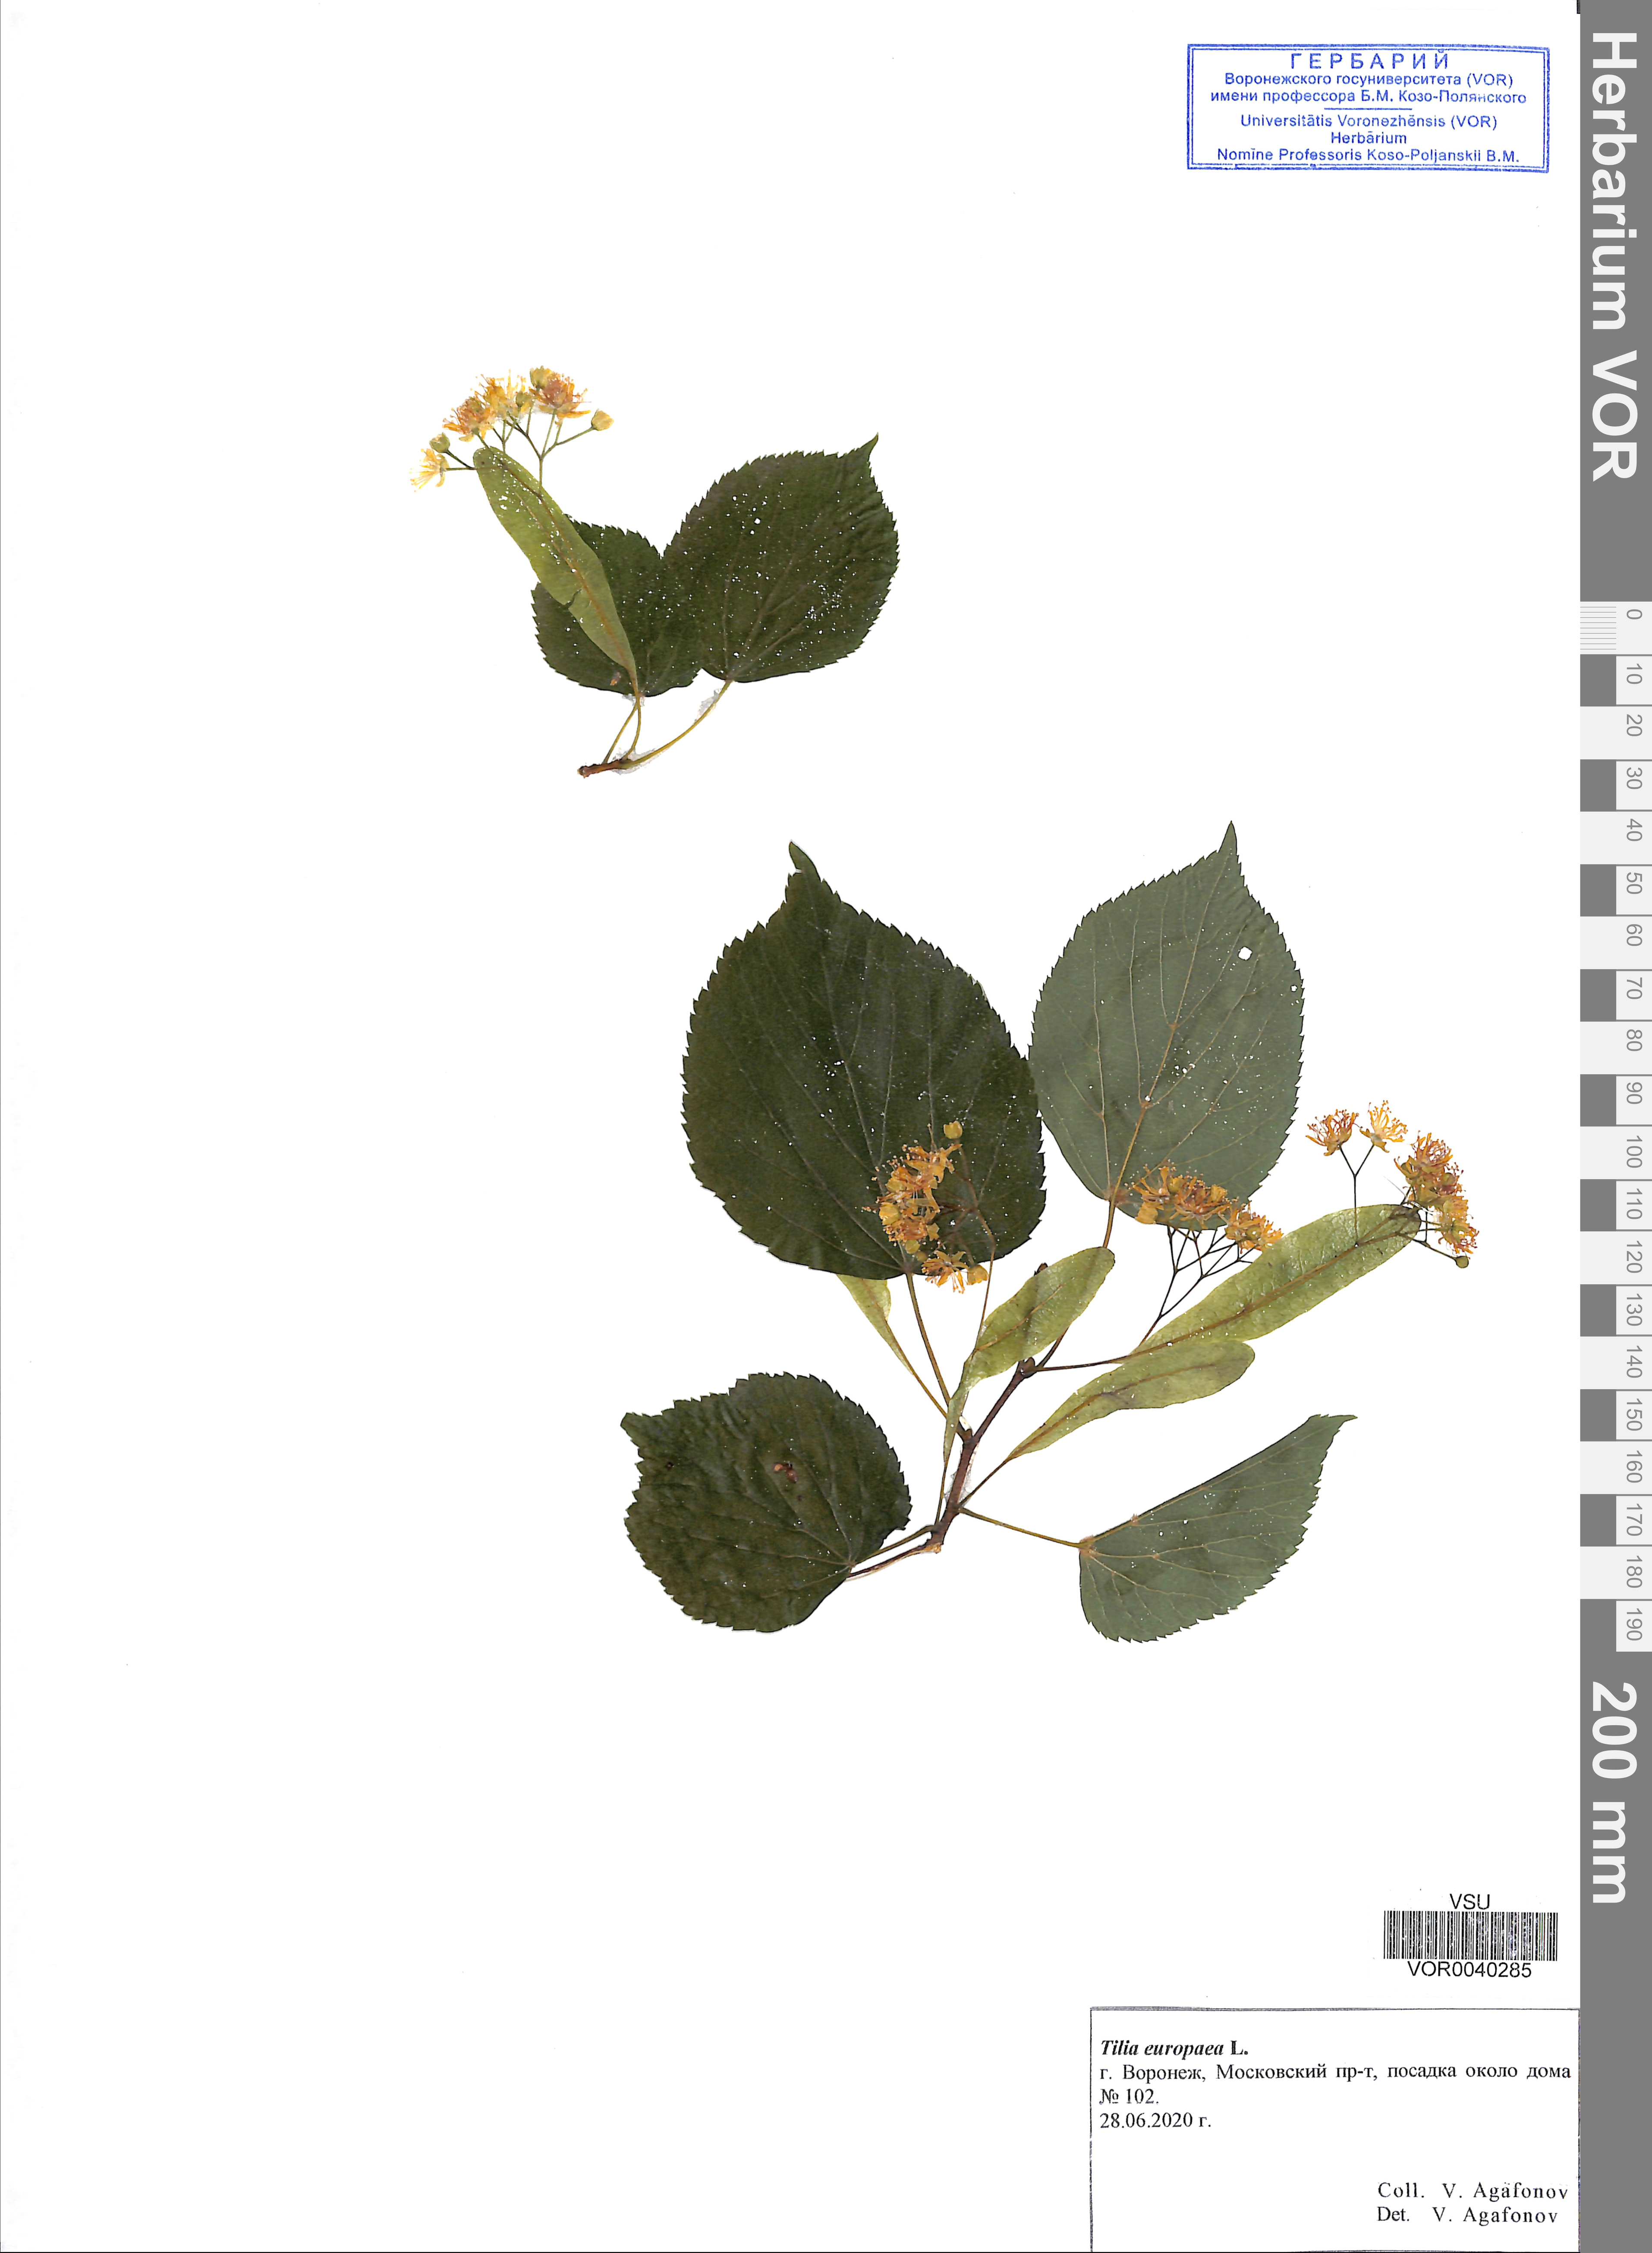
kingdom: Plantae
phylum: Tracheophyta
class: Magnoliopsida
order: Malvales
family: Malvaceae
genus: Tilia
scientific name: Tilia europaea
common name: European linden
